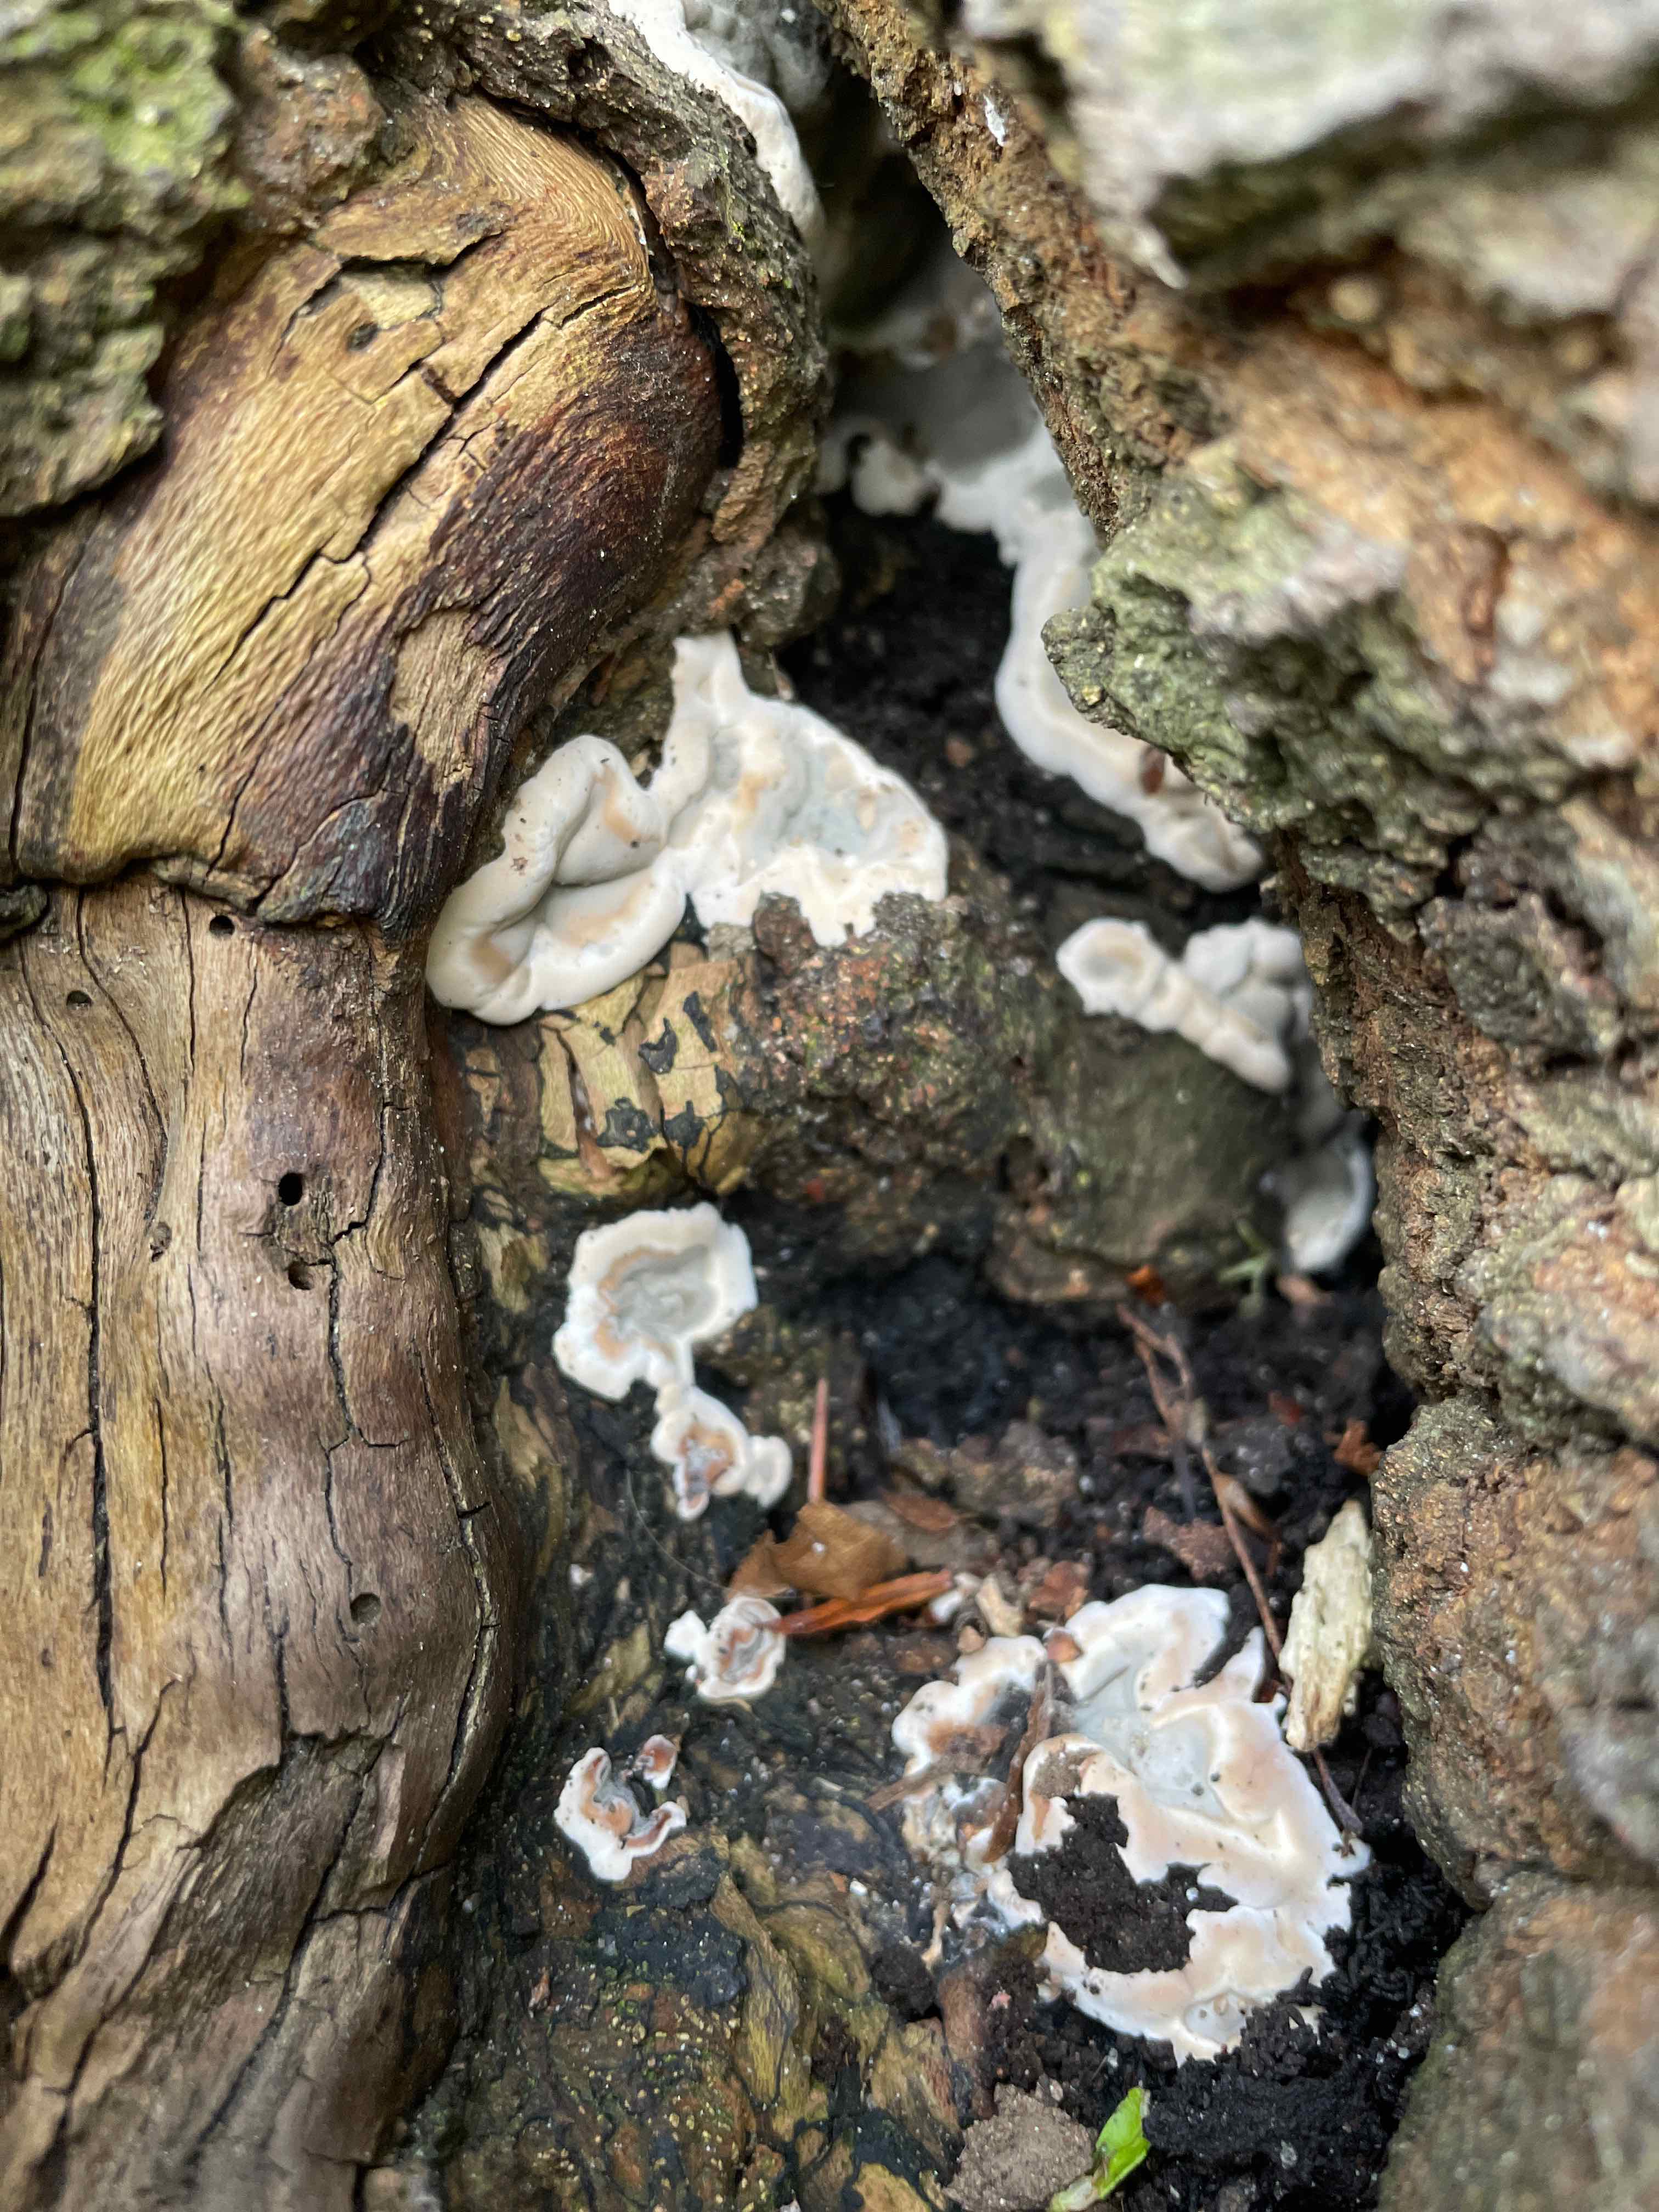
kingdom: Fungi
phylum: Ascomycota
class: Sordariomycetes
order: Xylariales
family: Xylariaceae
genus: Kretzschmaria
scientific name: Kretzschmaria deusta
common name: stor kulsvamp
